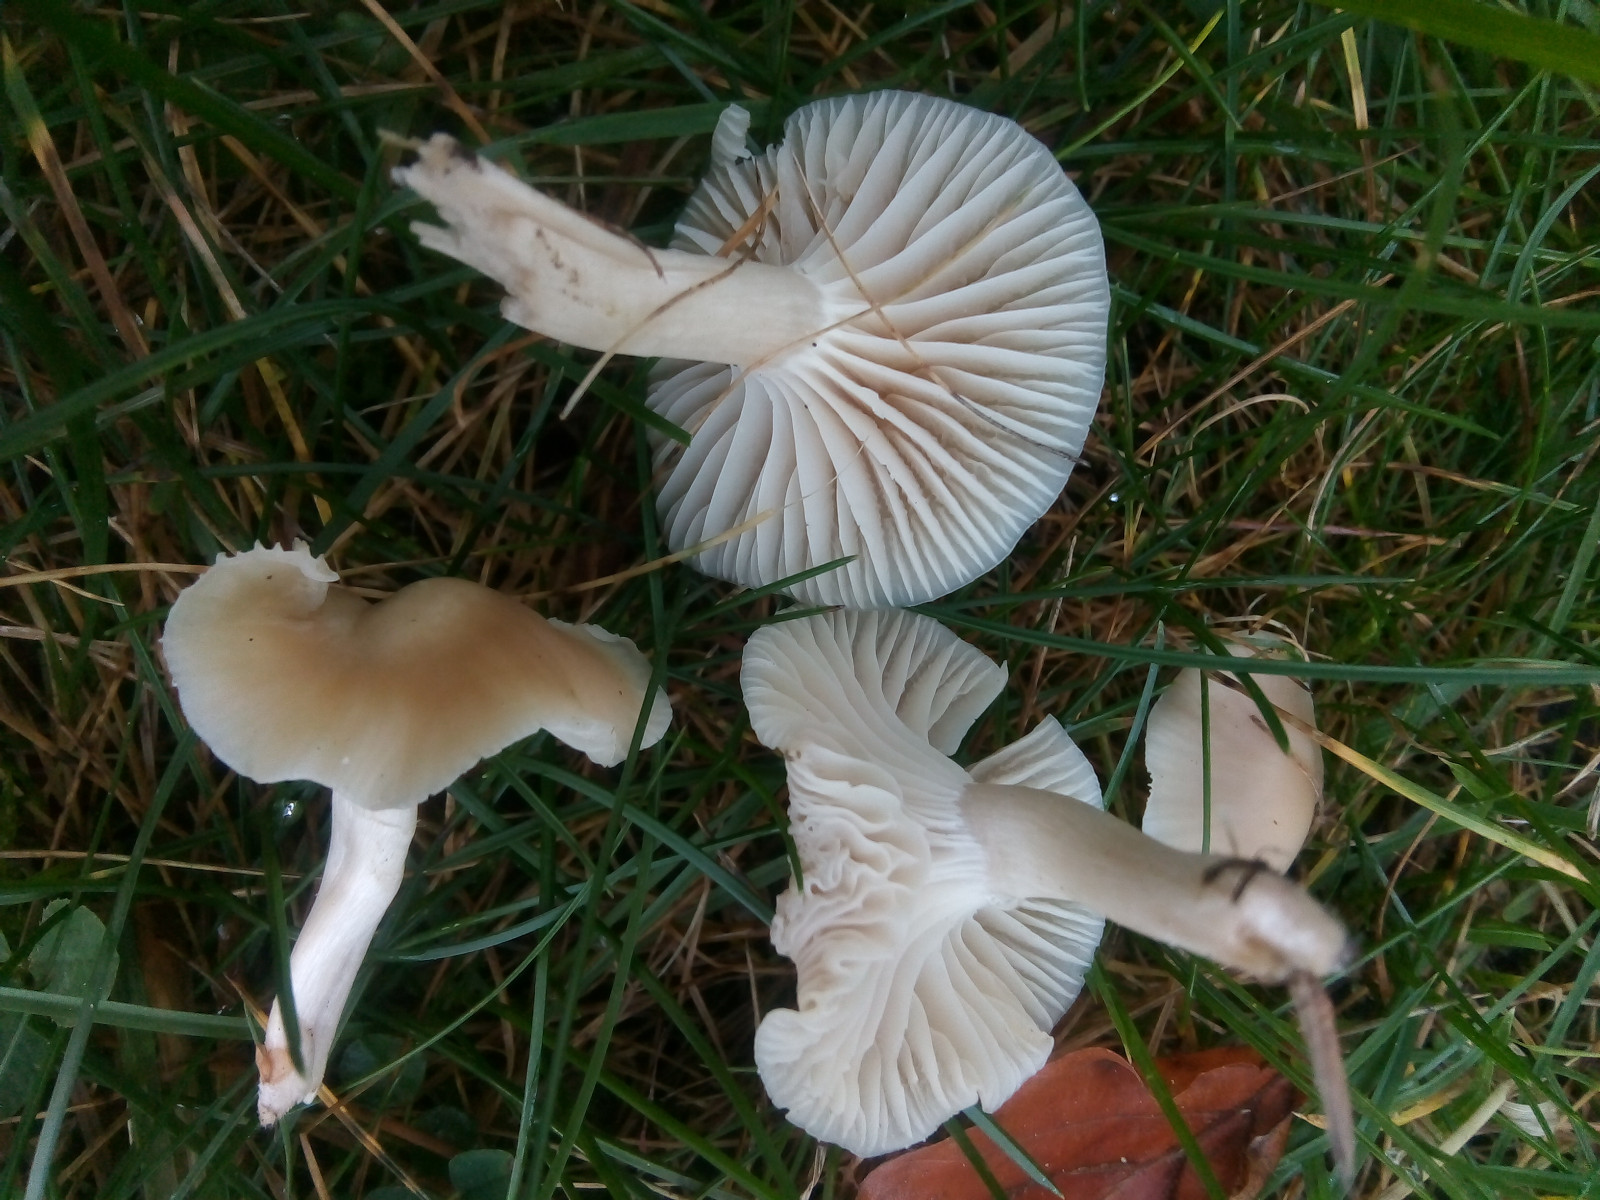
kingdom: Fungi
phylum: Basidiomycota
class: Agaricomycetes
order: Agaricales
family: Hygrophoraceae
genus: Cuphophyllus
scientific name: Cuphophyllus virgineus
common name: isabella-vokshat
